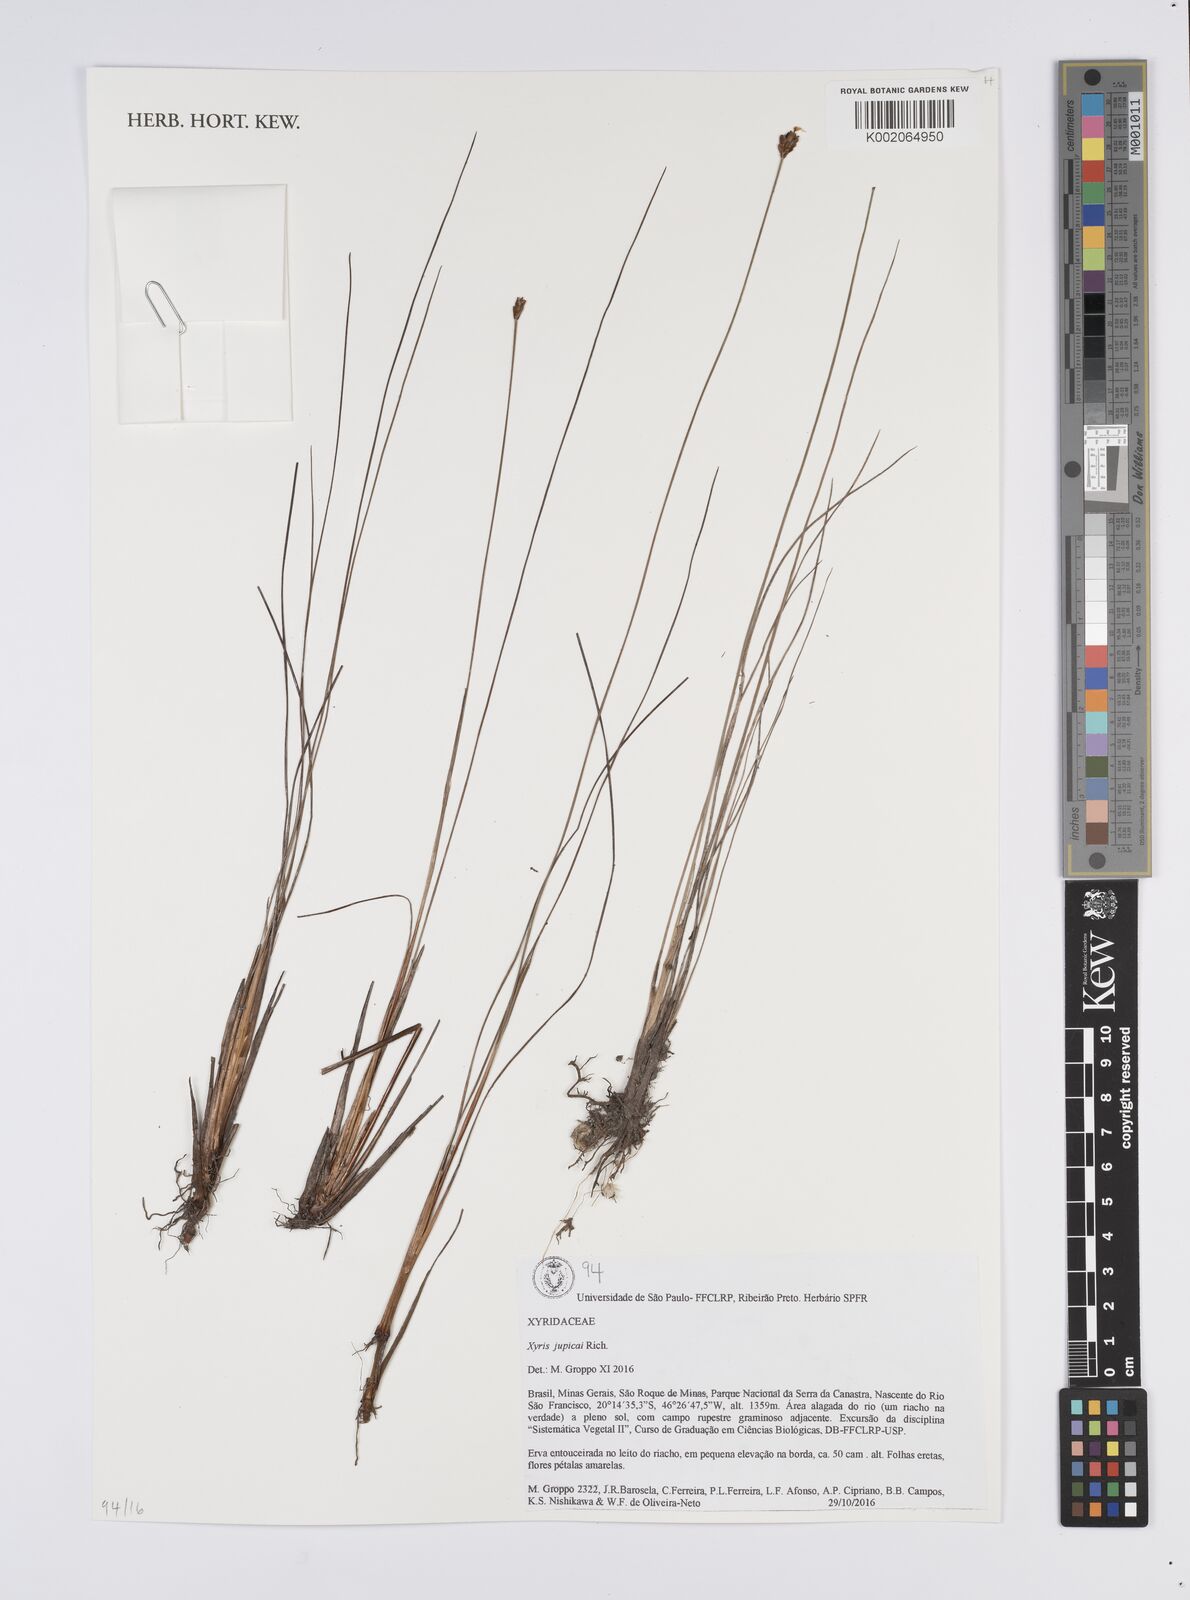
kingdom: Plantae
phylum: Tracheophyta
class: Liliopsida
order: Poales
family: Xyridaceae
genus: Xyris
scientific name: Xyris jupicai
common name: Richard's yelloweyed grass
